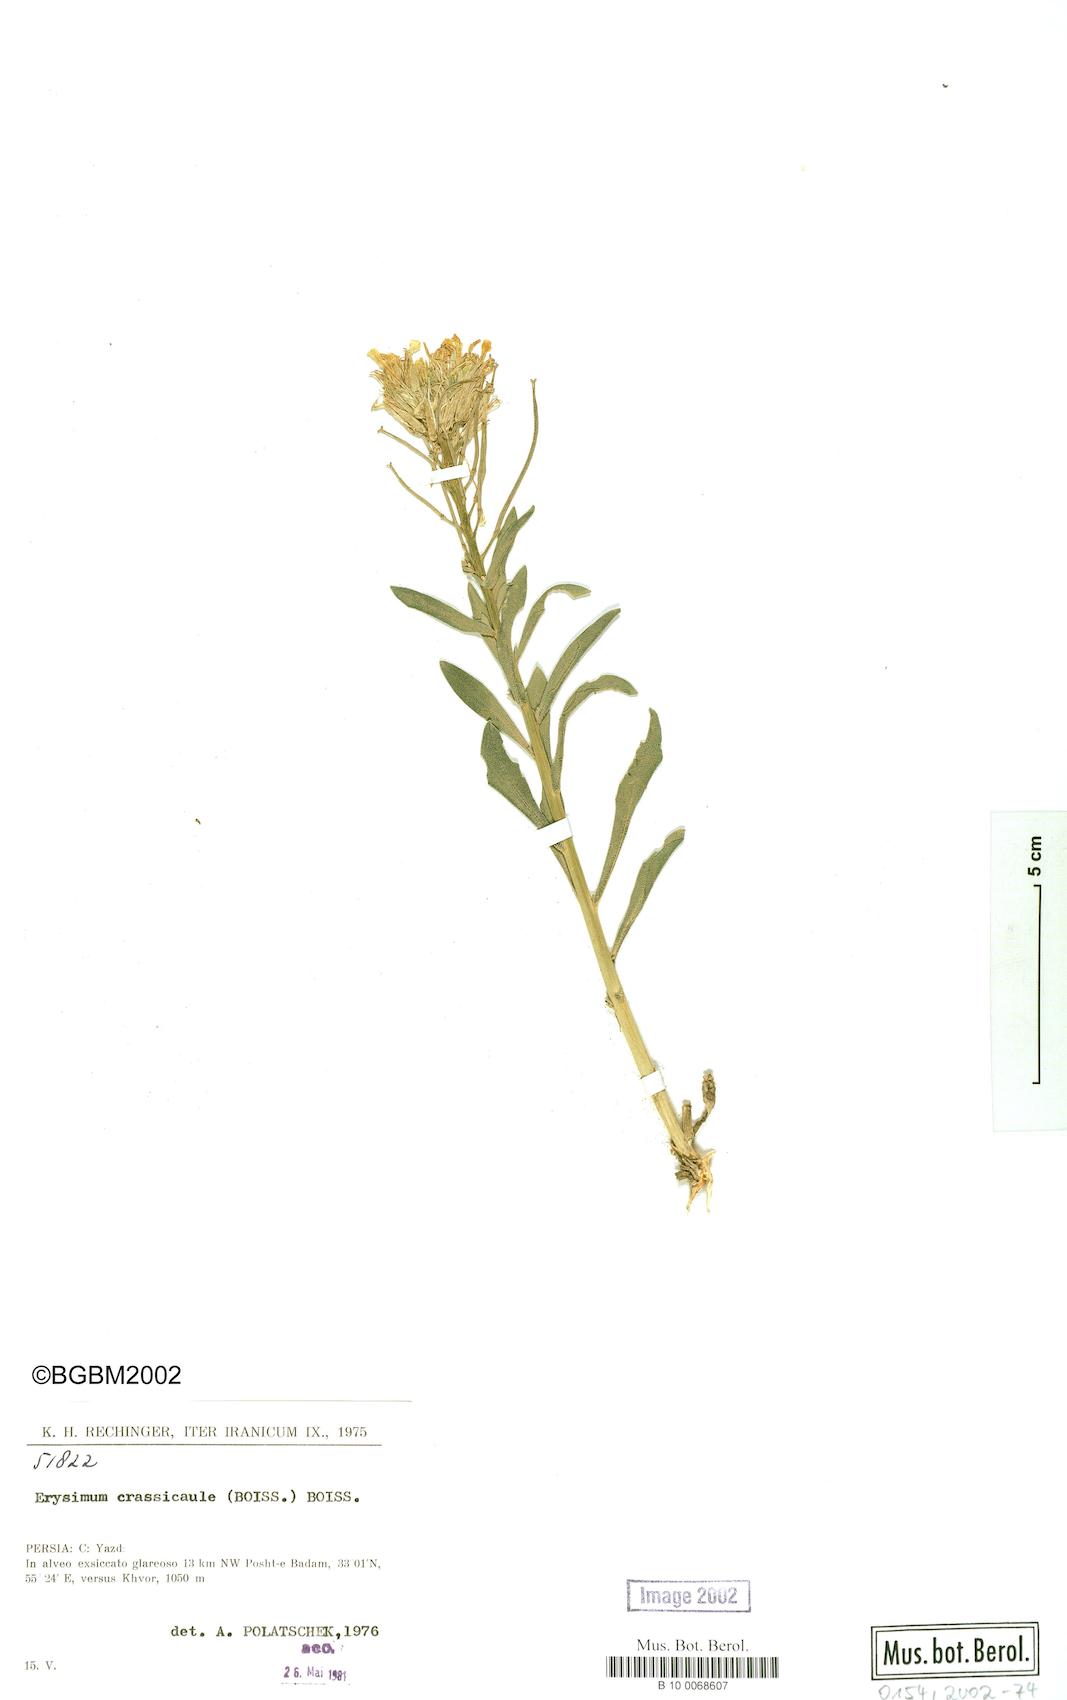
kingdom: Plantae
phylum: Tracheophyta
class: Magnoliopsida
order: Brassicales
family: Brassicaceae
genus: Erysimum
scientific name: Erysimum crassicaule
